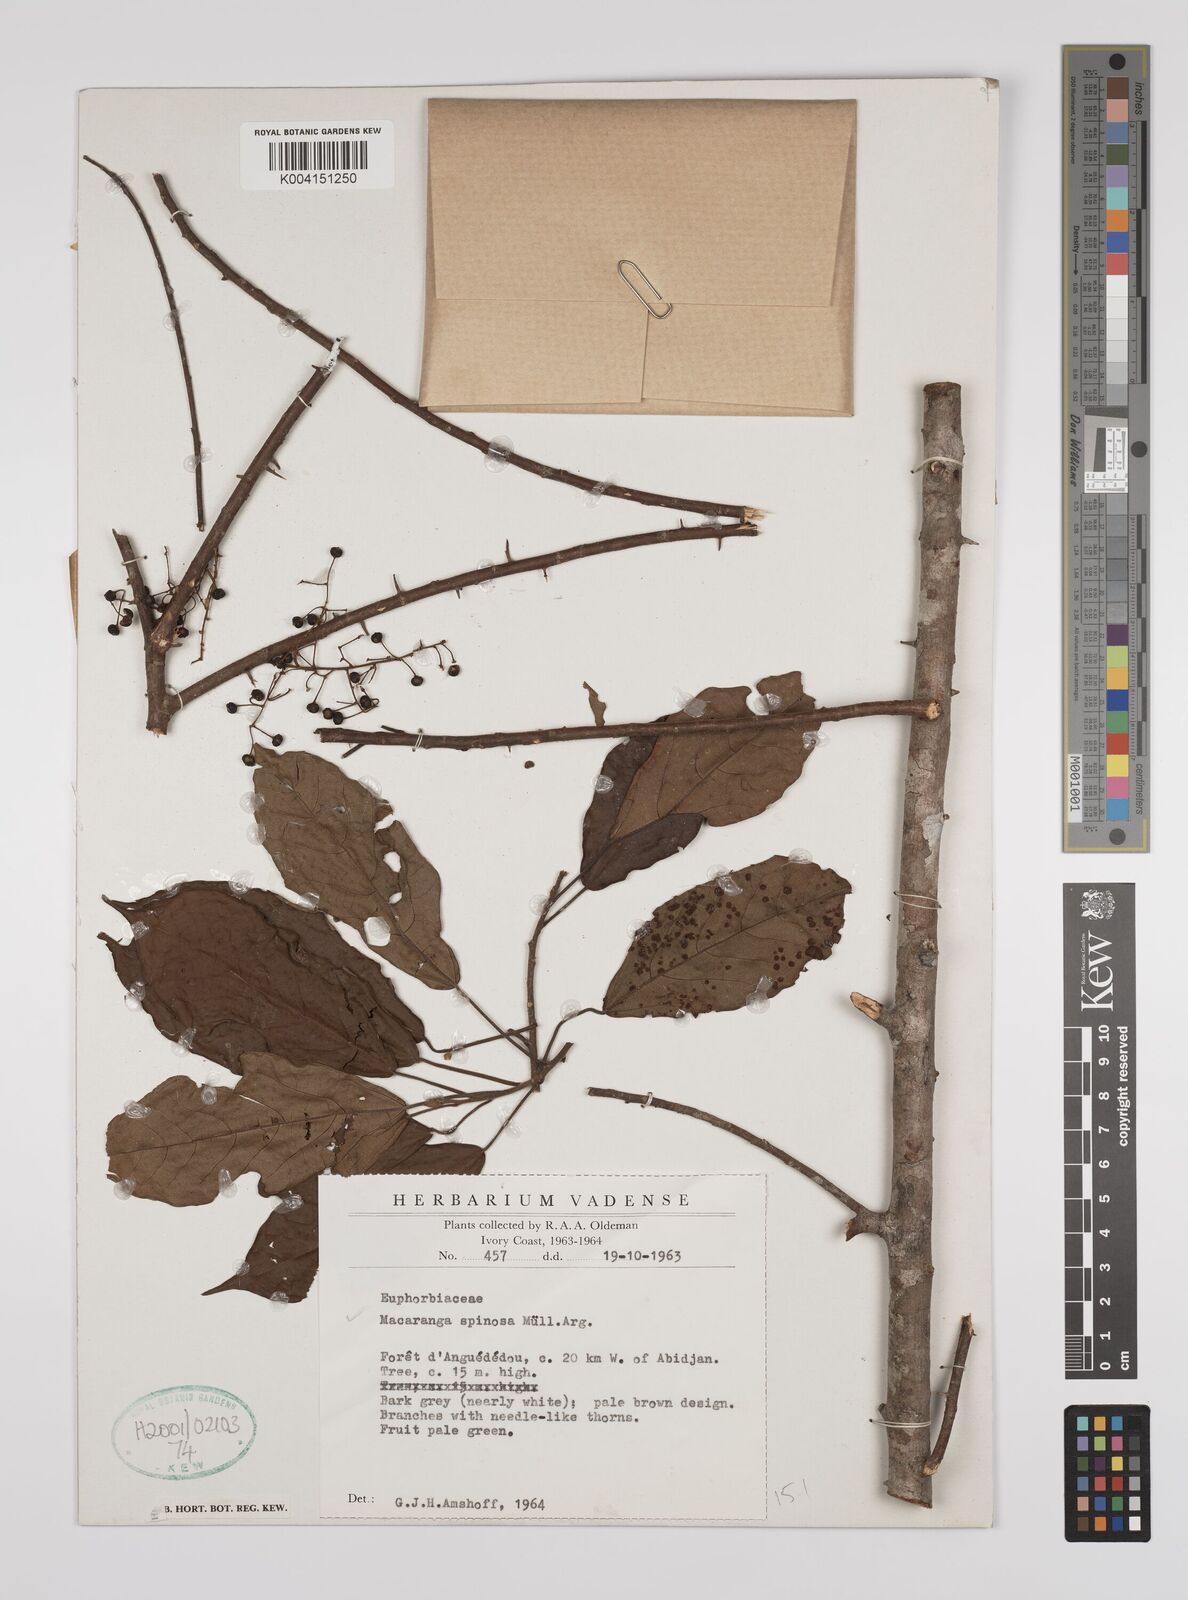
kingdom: Plantae
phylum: Tracheophyta
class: Magnoliopsida
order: Malpighiales
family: Euphorbiaceae
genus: Macaranga
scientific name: Macaranga spinosa
